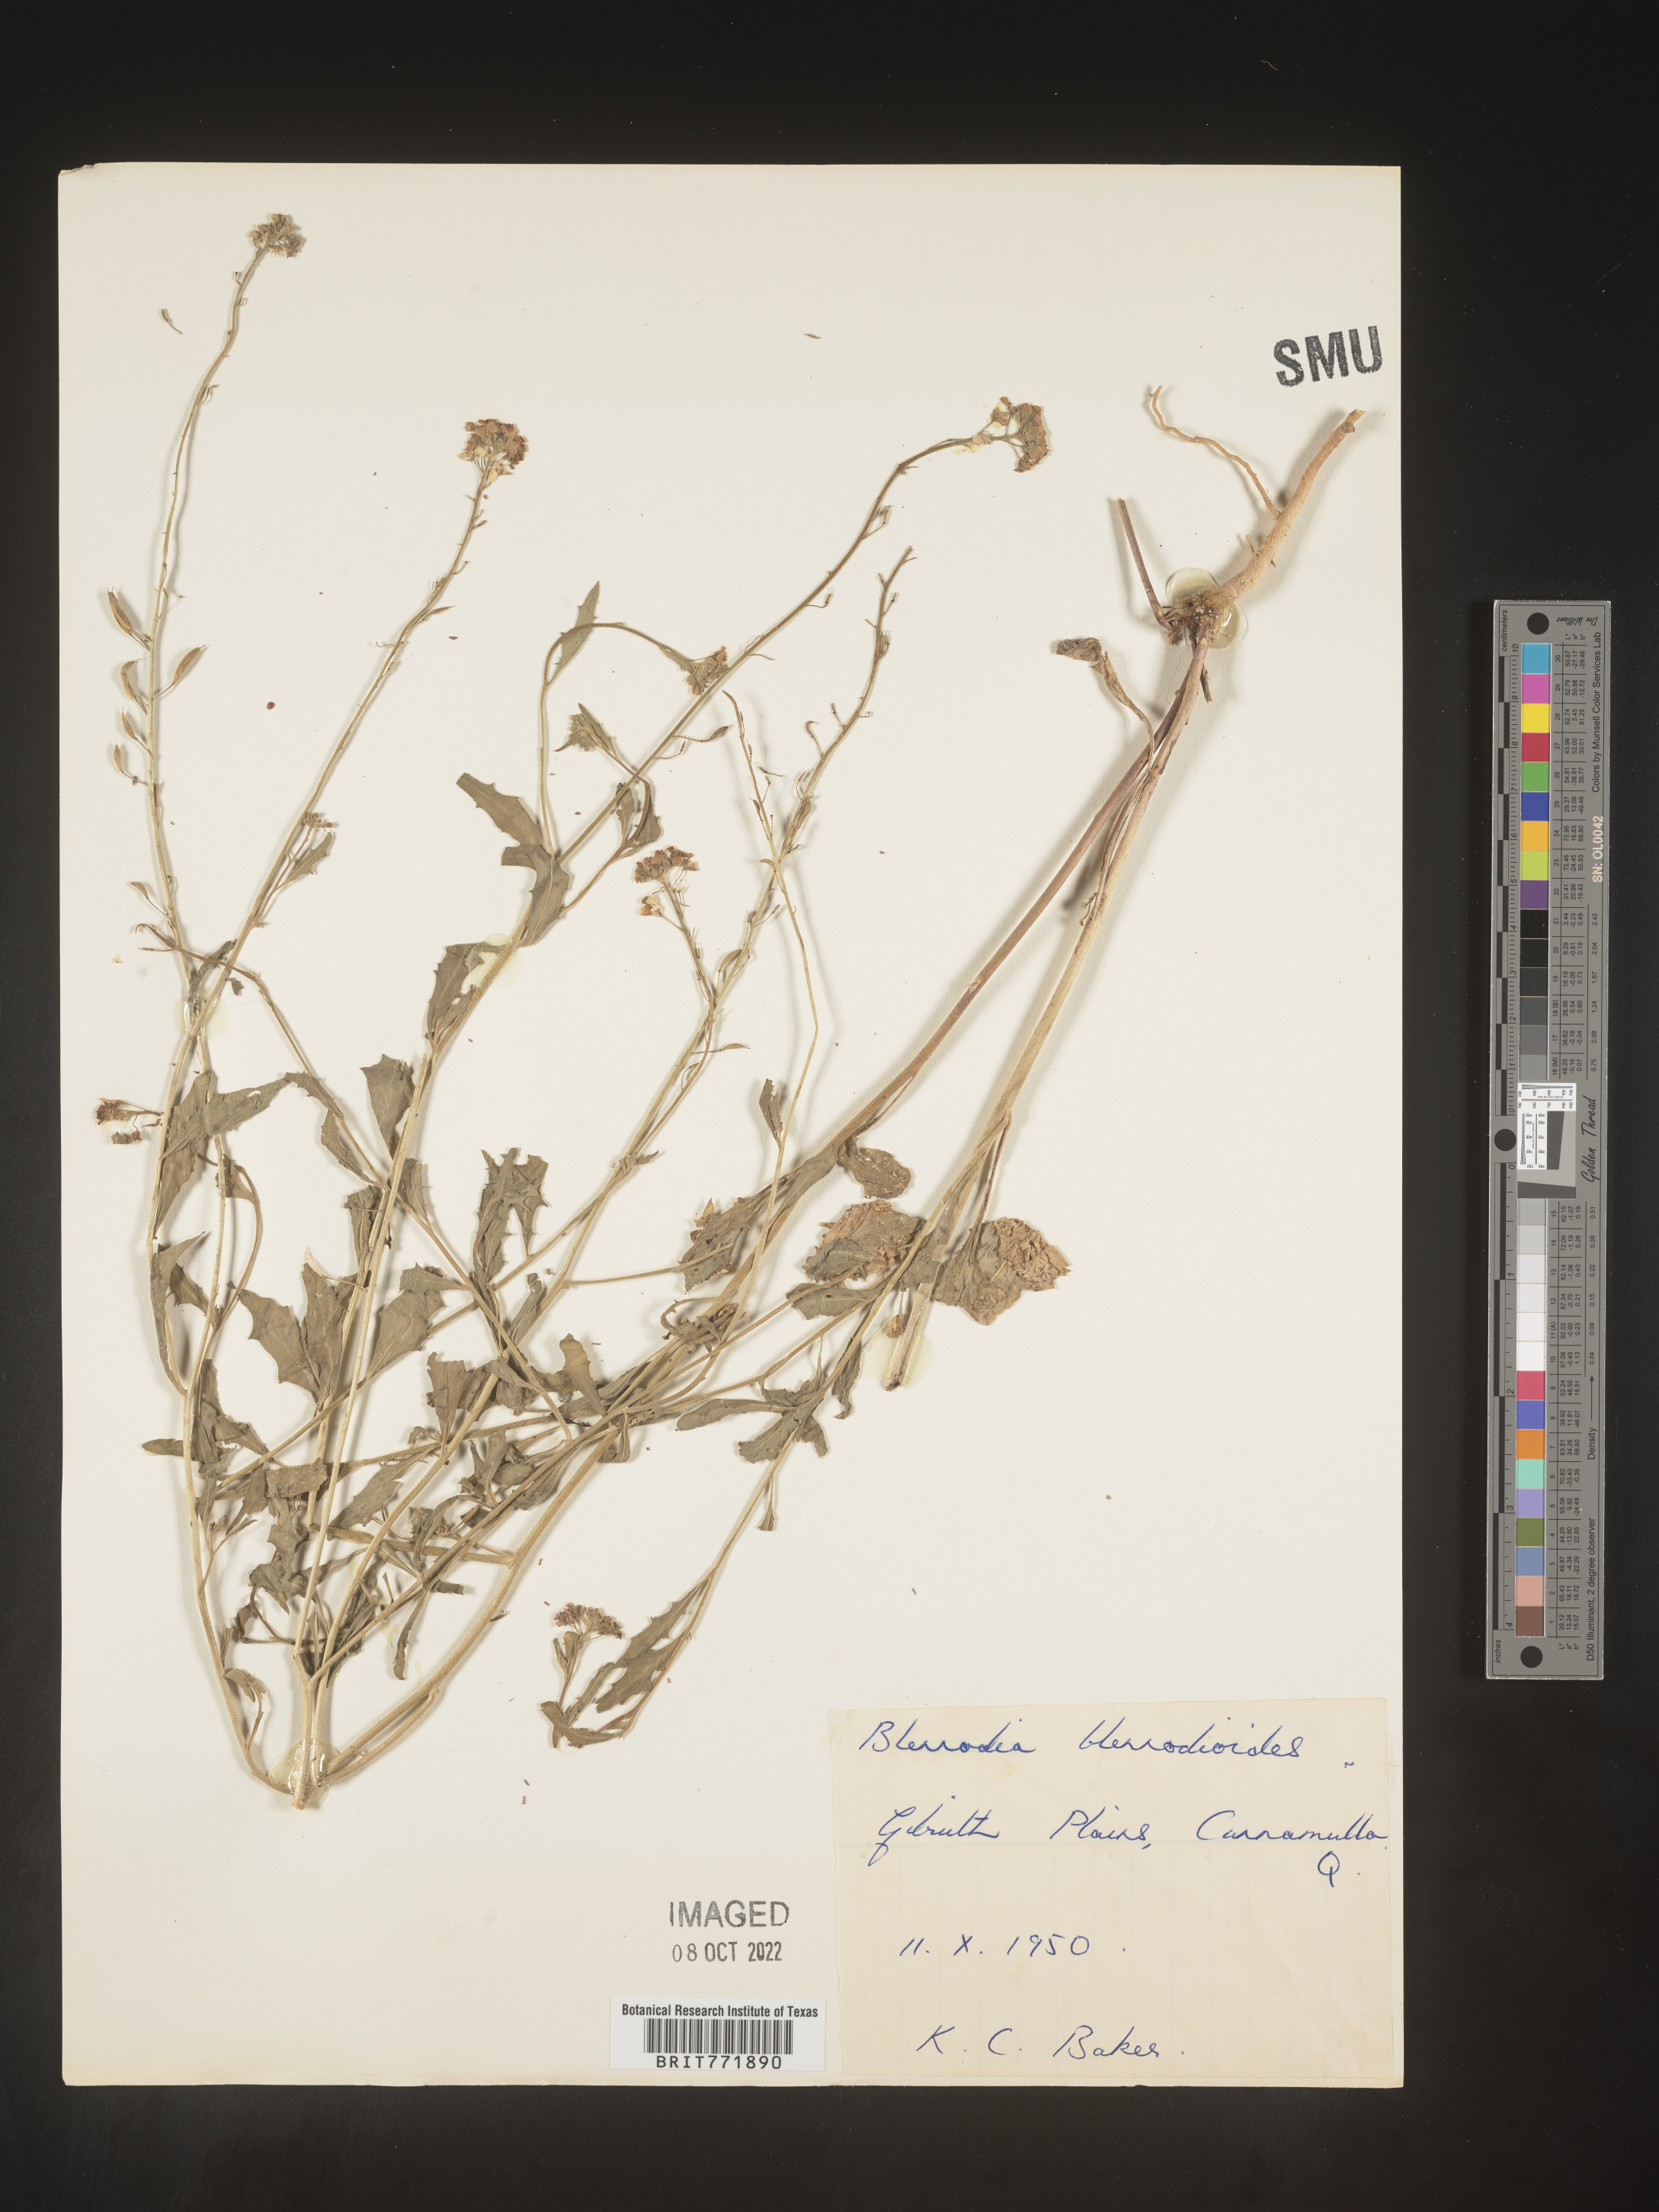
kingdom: Plantae
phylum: Tracheophyta
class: Magnoliopsida
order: Brassicales
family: Brassicaceae
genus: Blennodia
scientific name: Blennodia
